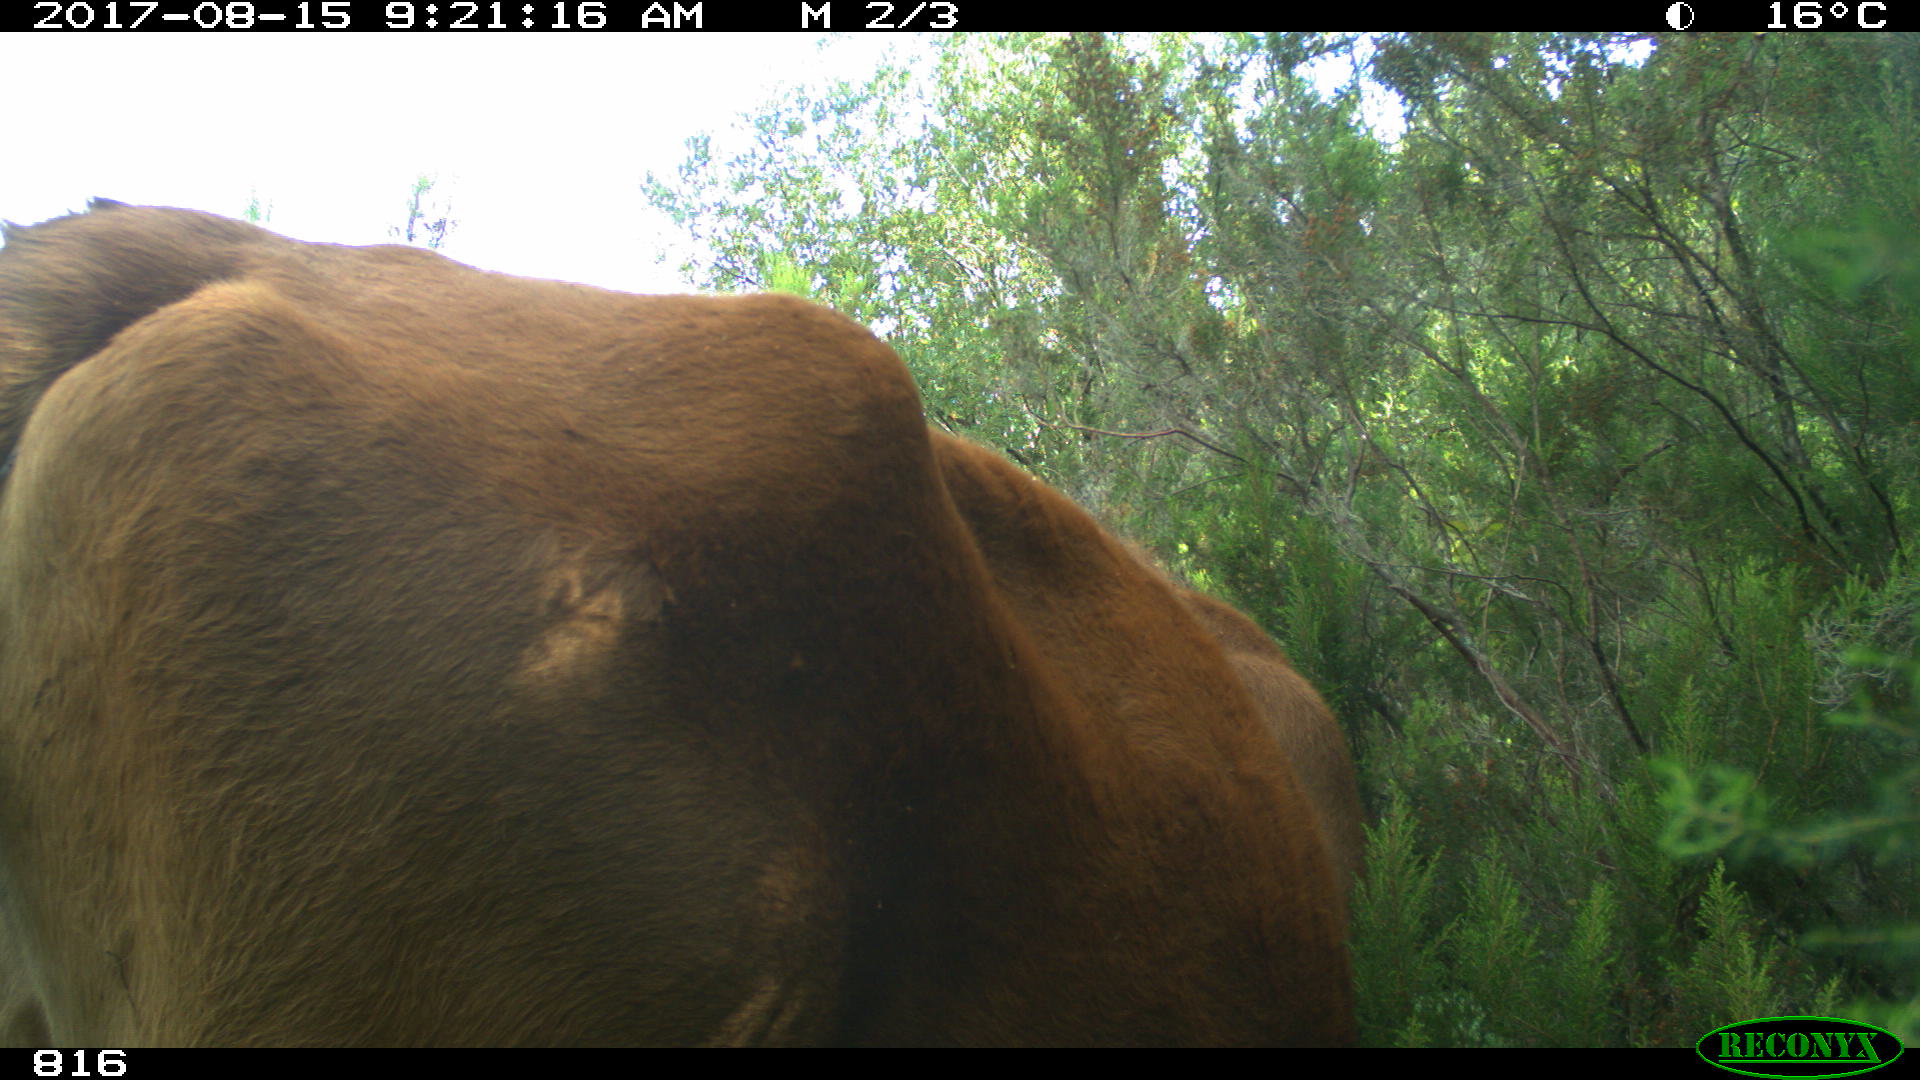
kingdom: Animalia
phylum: Chordata
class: Mammalia
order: Artiodactyla
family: Bovidae
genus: Bos
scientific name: Bos taurus
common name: Domesticated cattle
